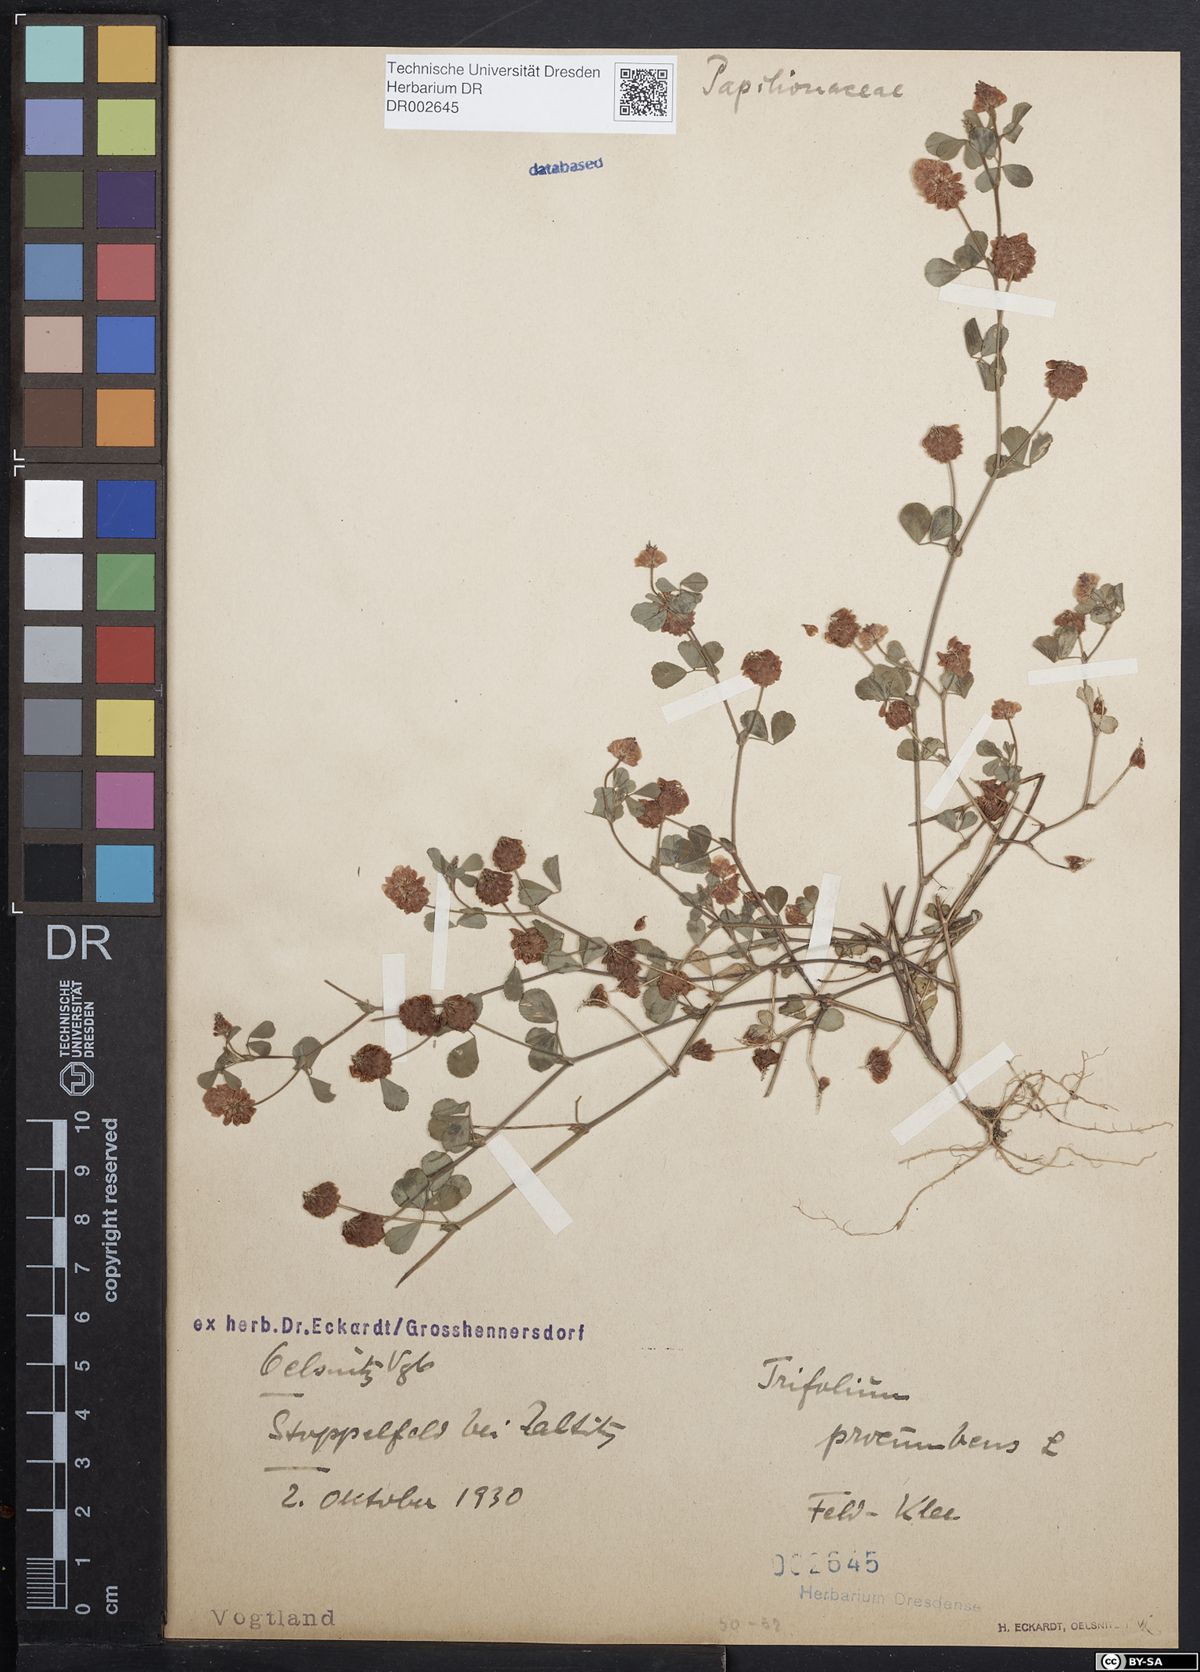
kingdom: Plantae
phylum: Tracheophyta
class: Magnoliopsida
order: Fabales
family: Fabaceae
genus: Trifolium
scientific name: Trifolium campestre
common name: Field clover
